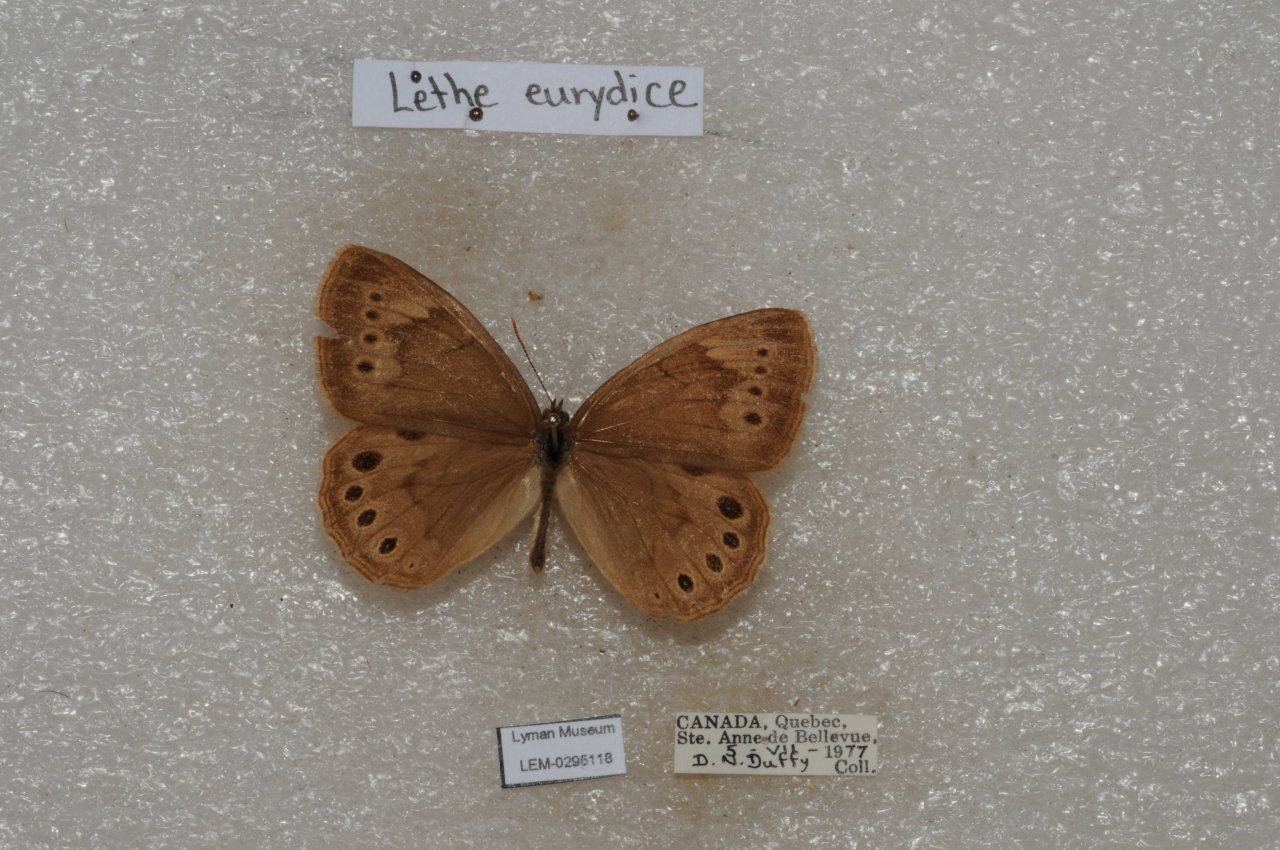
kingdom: Animalia
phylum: Arthropoda
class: Insecta
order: Lepidoptera
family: Nymphalidae
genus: Lethe
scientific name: Lethe eurydice
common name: Eyed Brown
